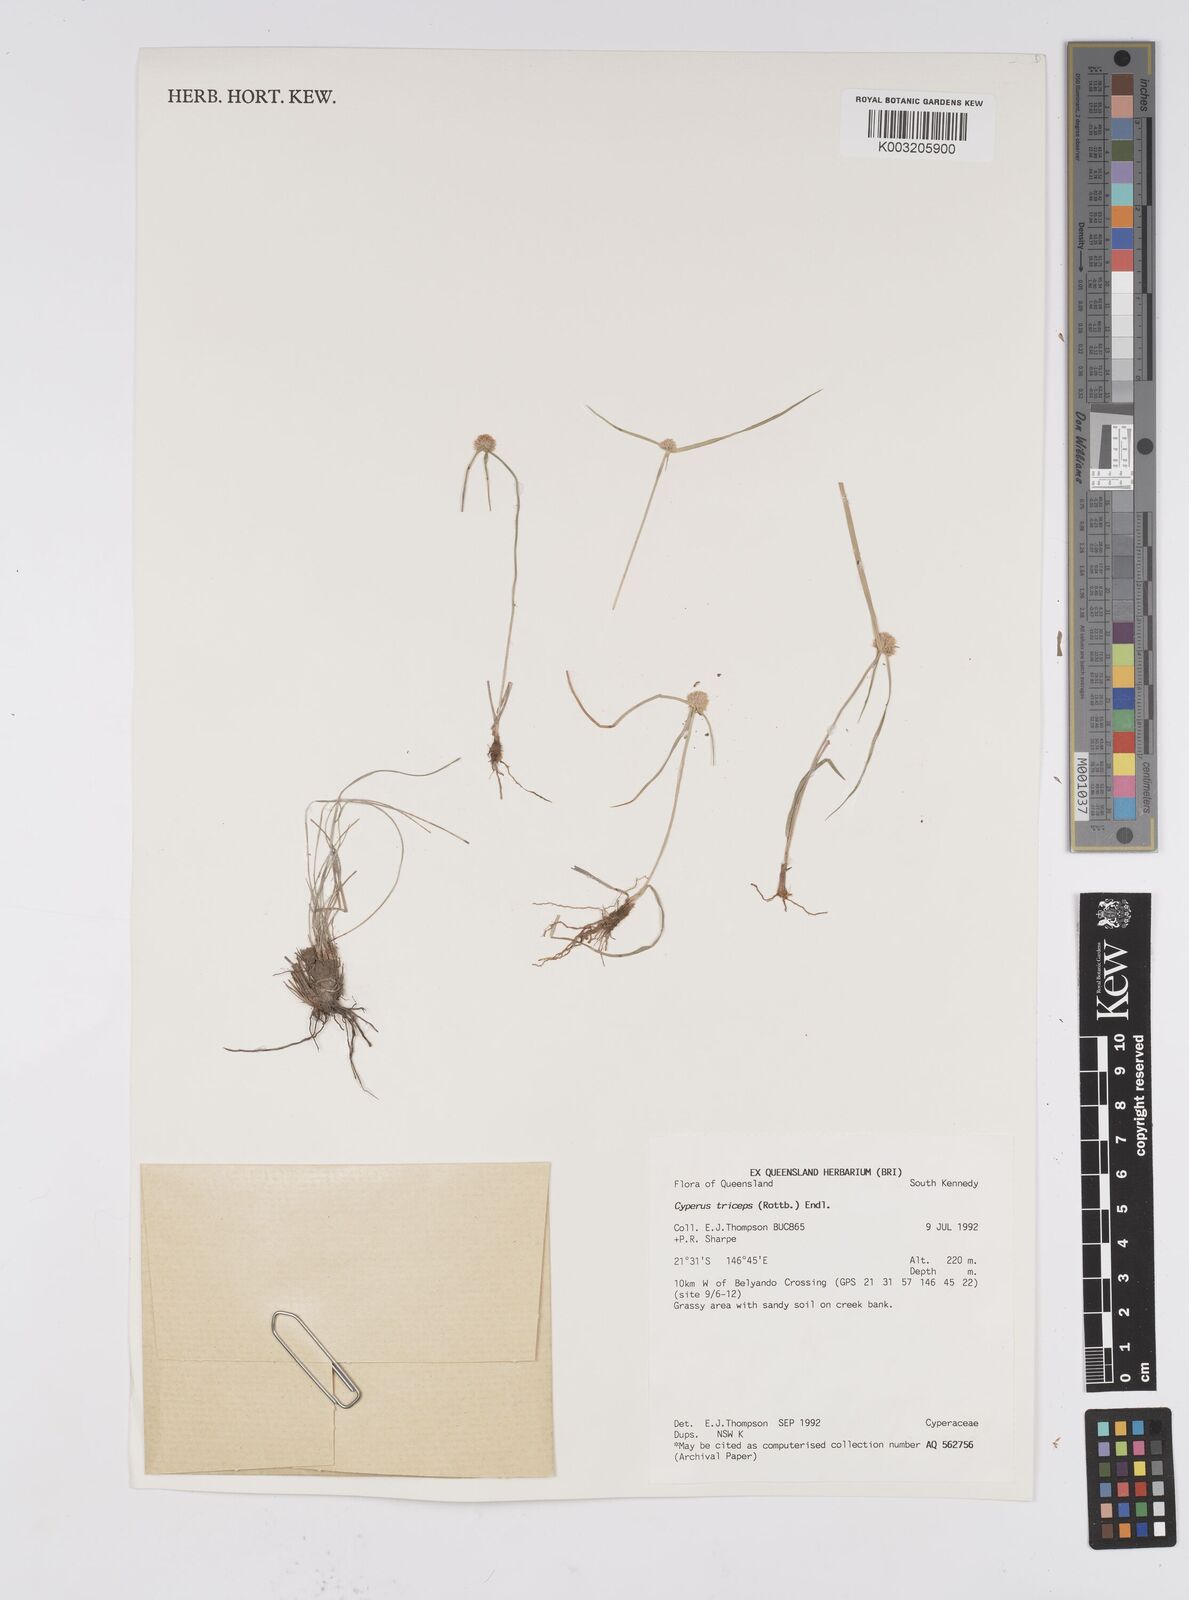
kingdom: Plantae
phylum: Tracheophyta
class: Liliopsida
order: Poales
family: Cyperaceae
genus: Cyperus
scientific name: Cyperus dubius
